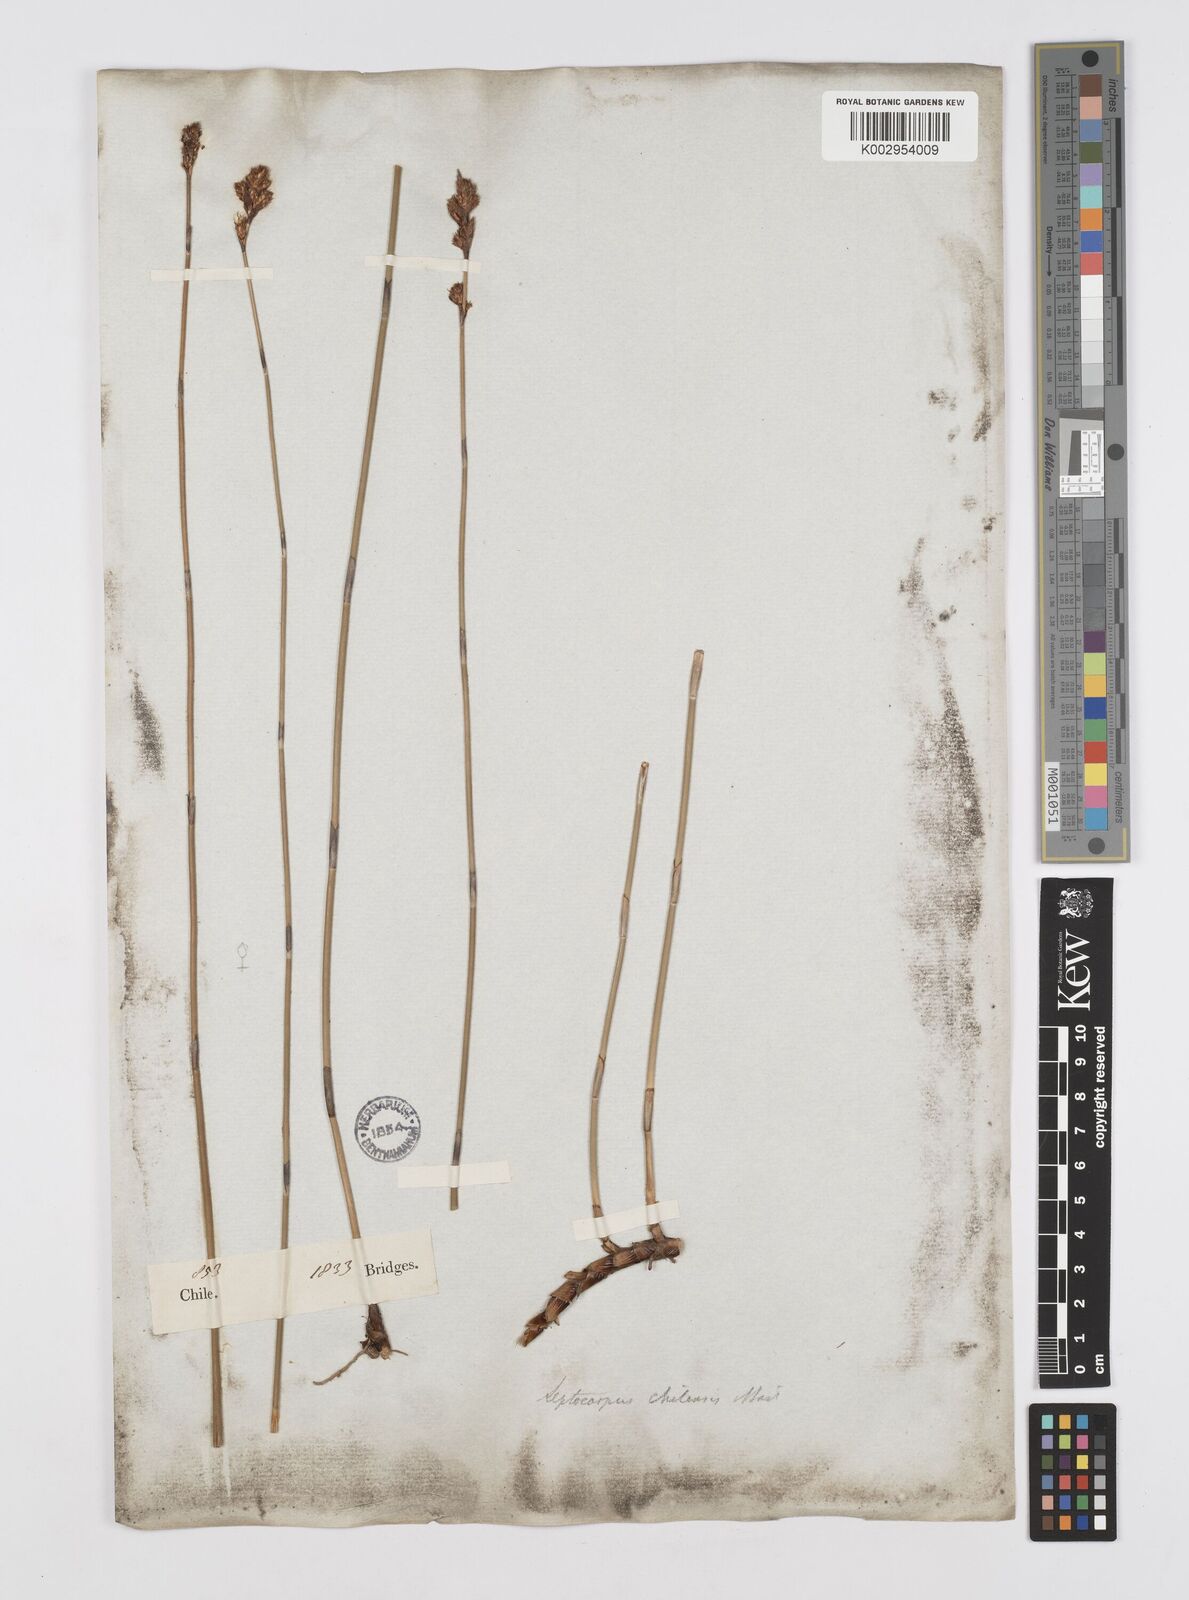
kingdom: Plantae
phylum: Tracheophyta
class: Liliopsida
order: Poales
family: Restionaceae
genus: Apodasmia
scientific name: Apodasmia chilensis
